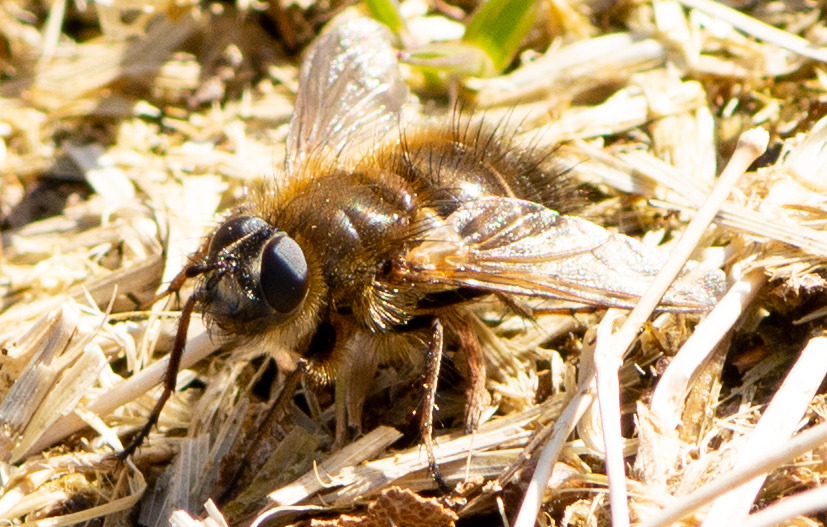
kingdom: Animalia
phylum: Arthropoda
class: Insecta
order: Diptera
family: Tachinidae
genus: Tachina
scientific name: Tachina ursina
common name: Bjørnesnylteflue
